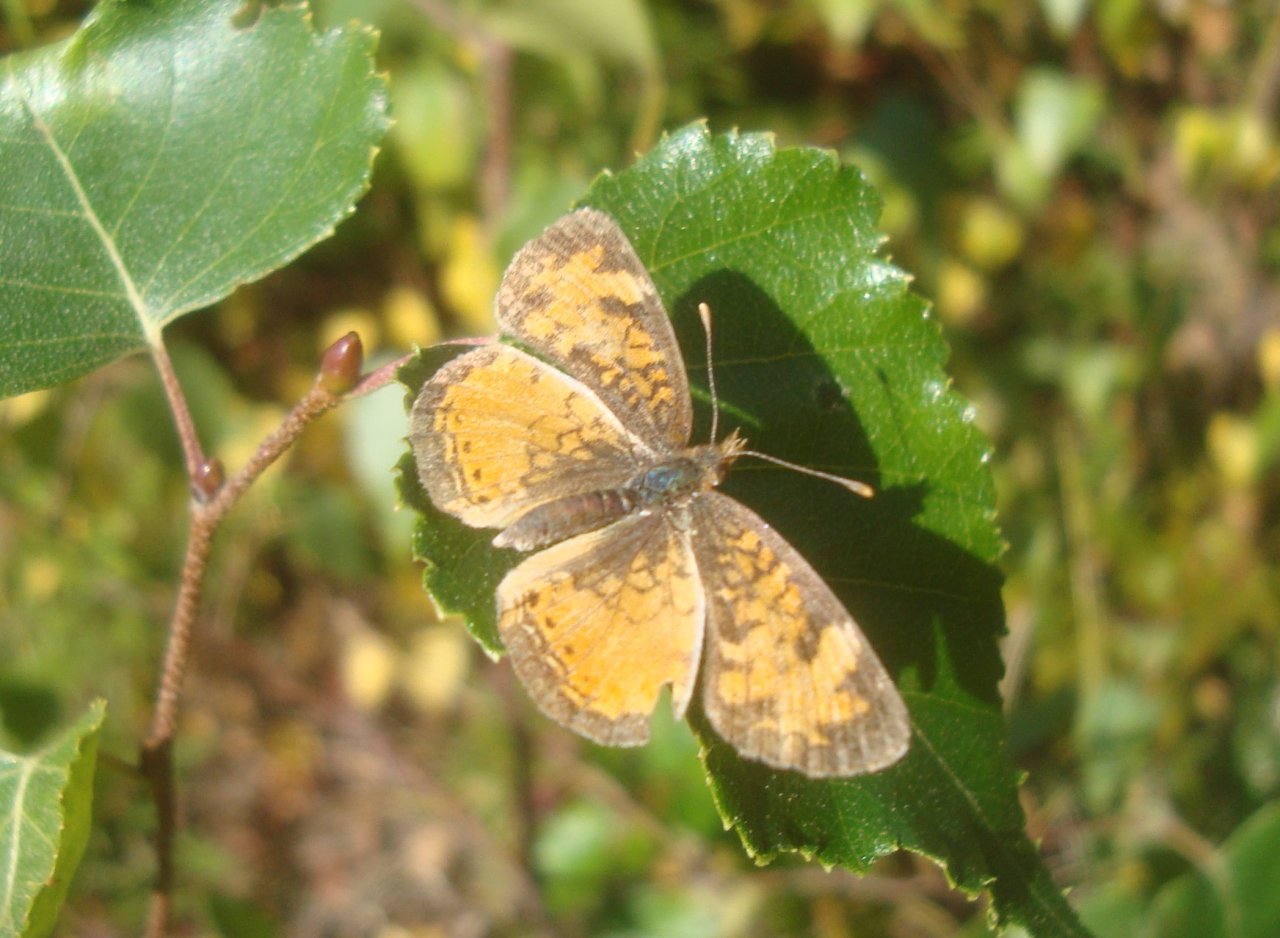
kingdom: Animalia
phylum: Arthropoda
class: Insecta
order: Lepidoptera
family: Nymphalidae
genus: Phyciodes
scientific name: Phyciodes tharos
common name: Northern Crescent
